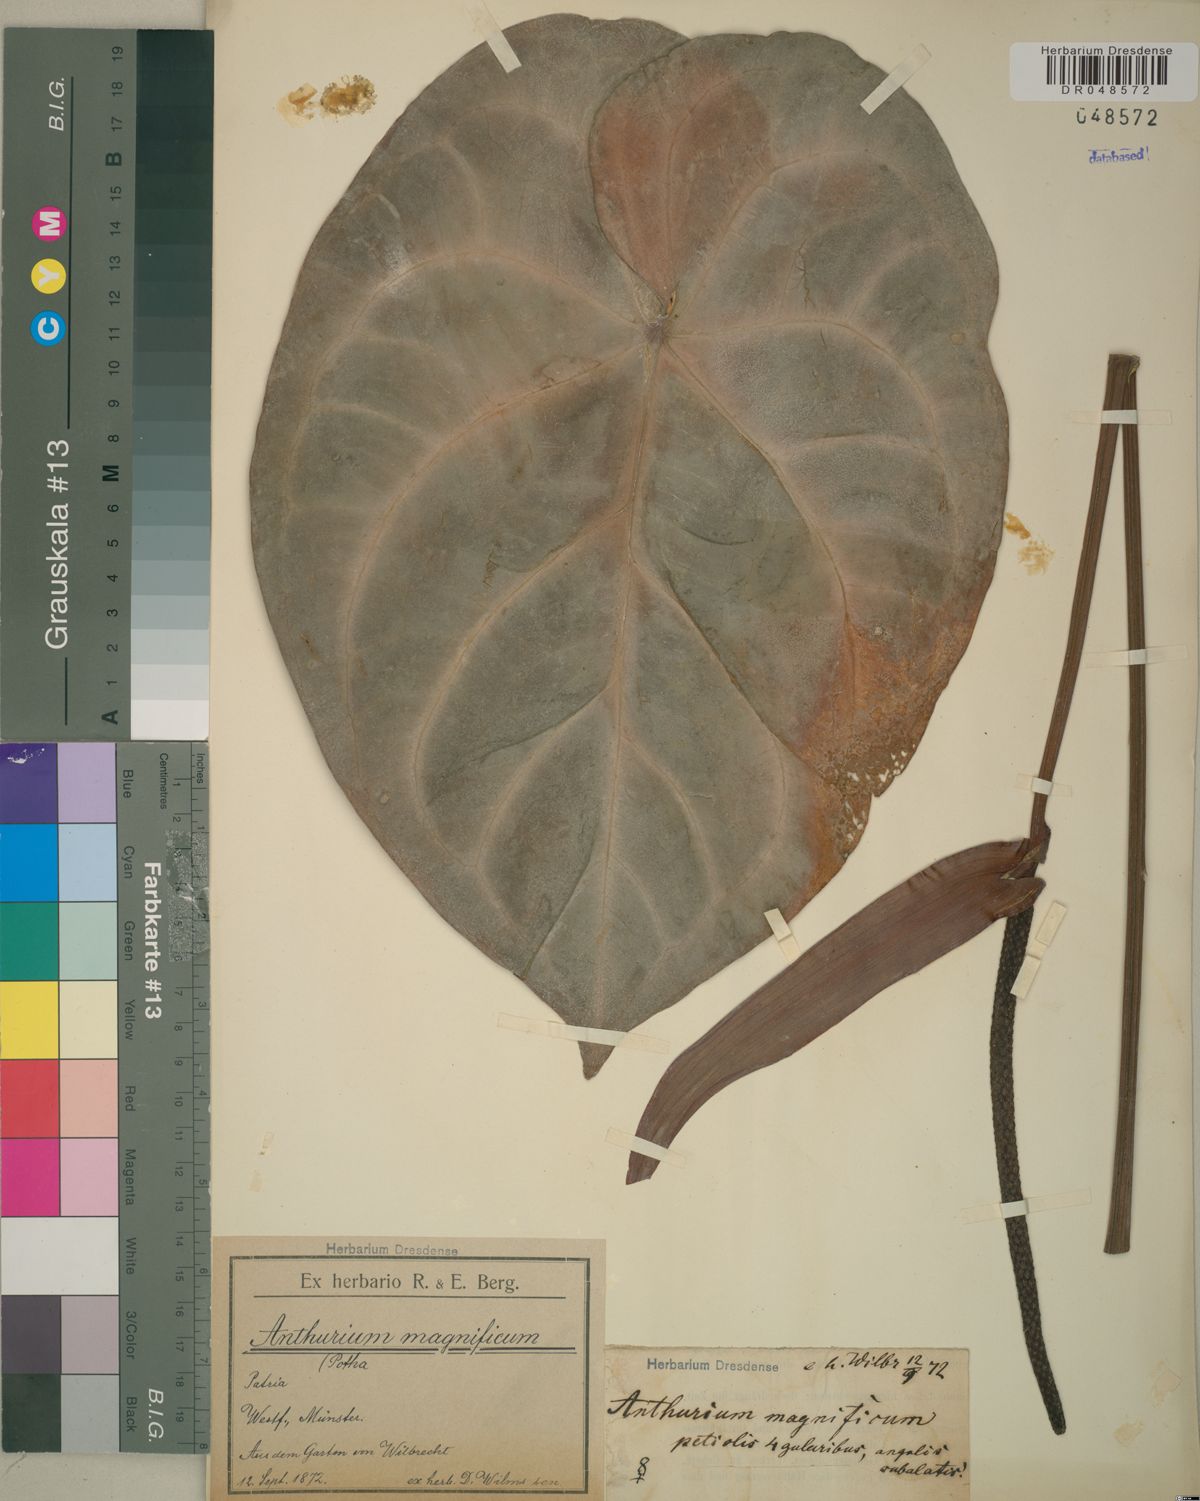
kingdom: Plantae
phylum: Tracheophyta
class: Liliopsida
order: Alismatales
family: Araceae
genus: Anthurium
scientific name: Anthurium magnificum
